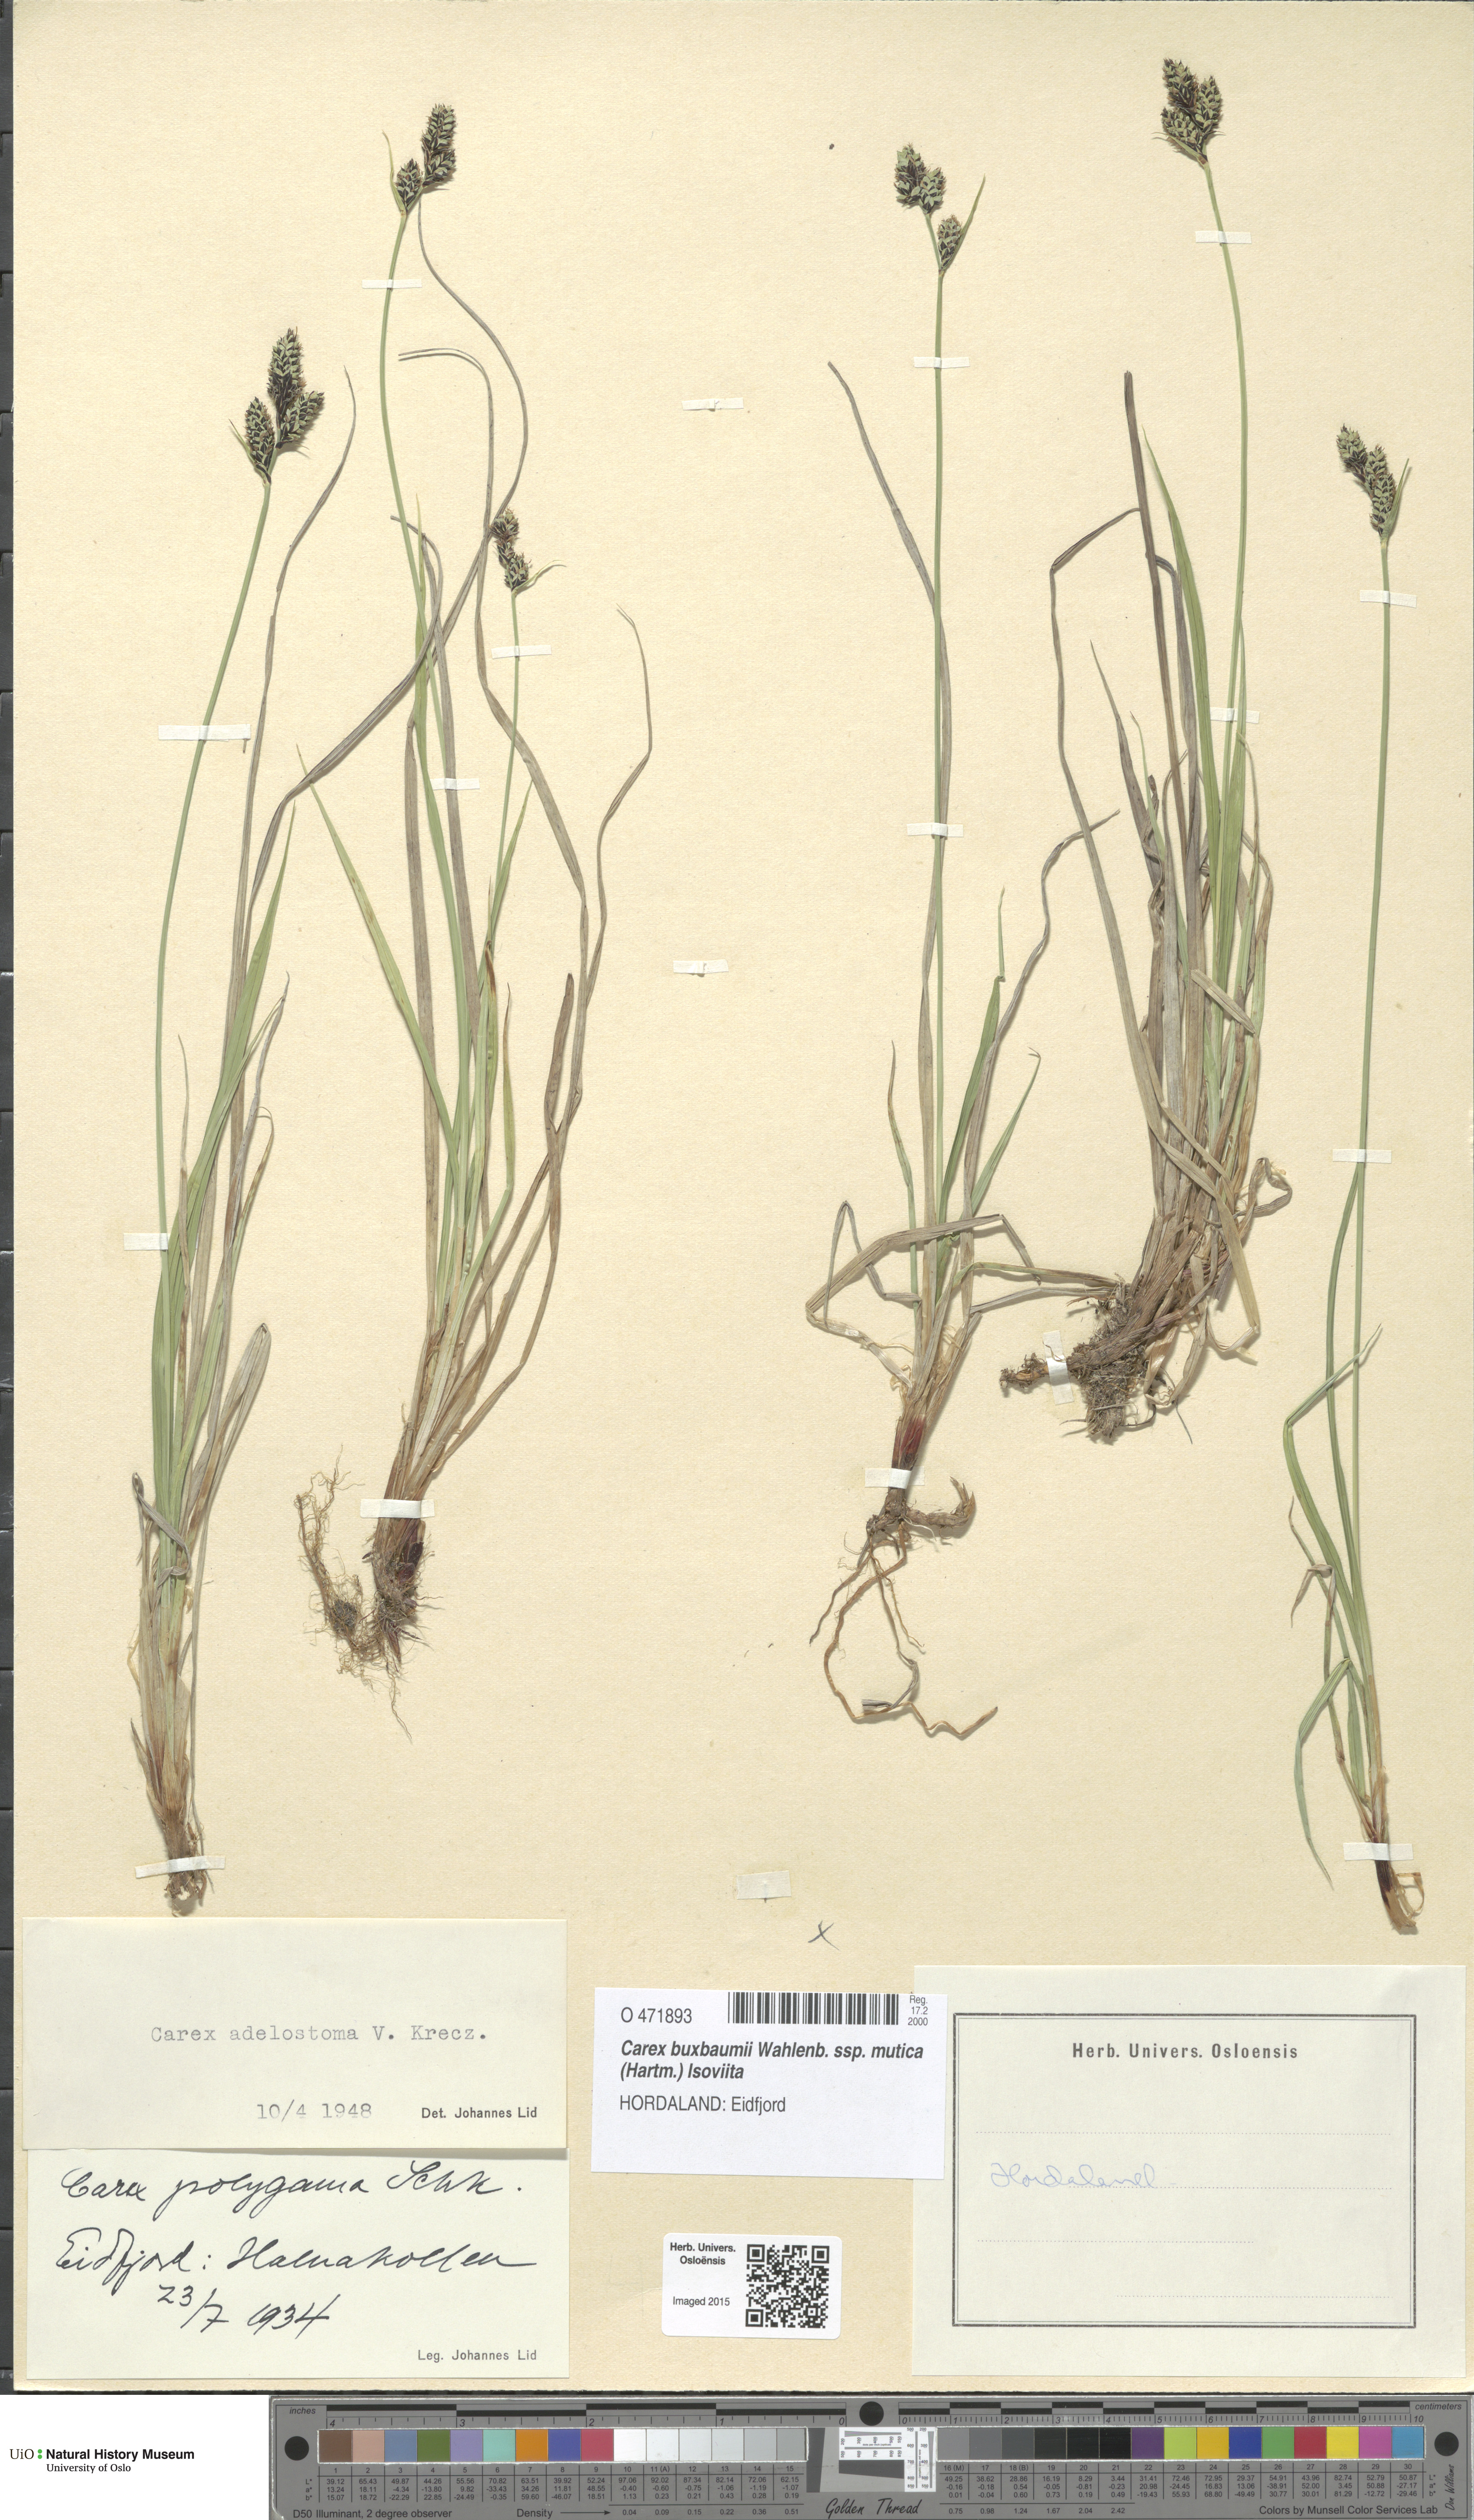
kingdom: Plantae
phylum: Tracheophyta
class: Liliopsida
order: Poales
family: Cyperaceae
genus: Carex
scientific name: Carex adelostoma
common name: Circumpolar sedge
